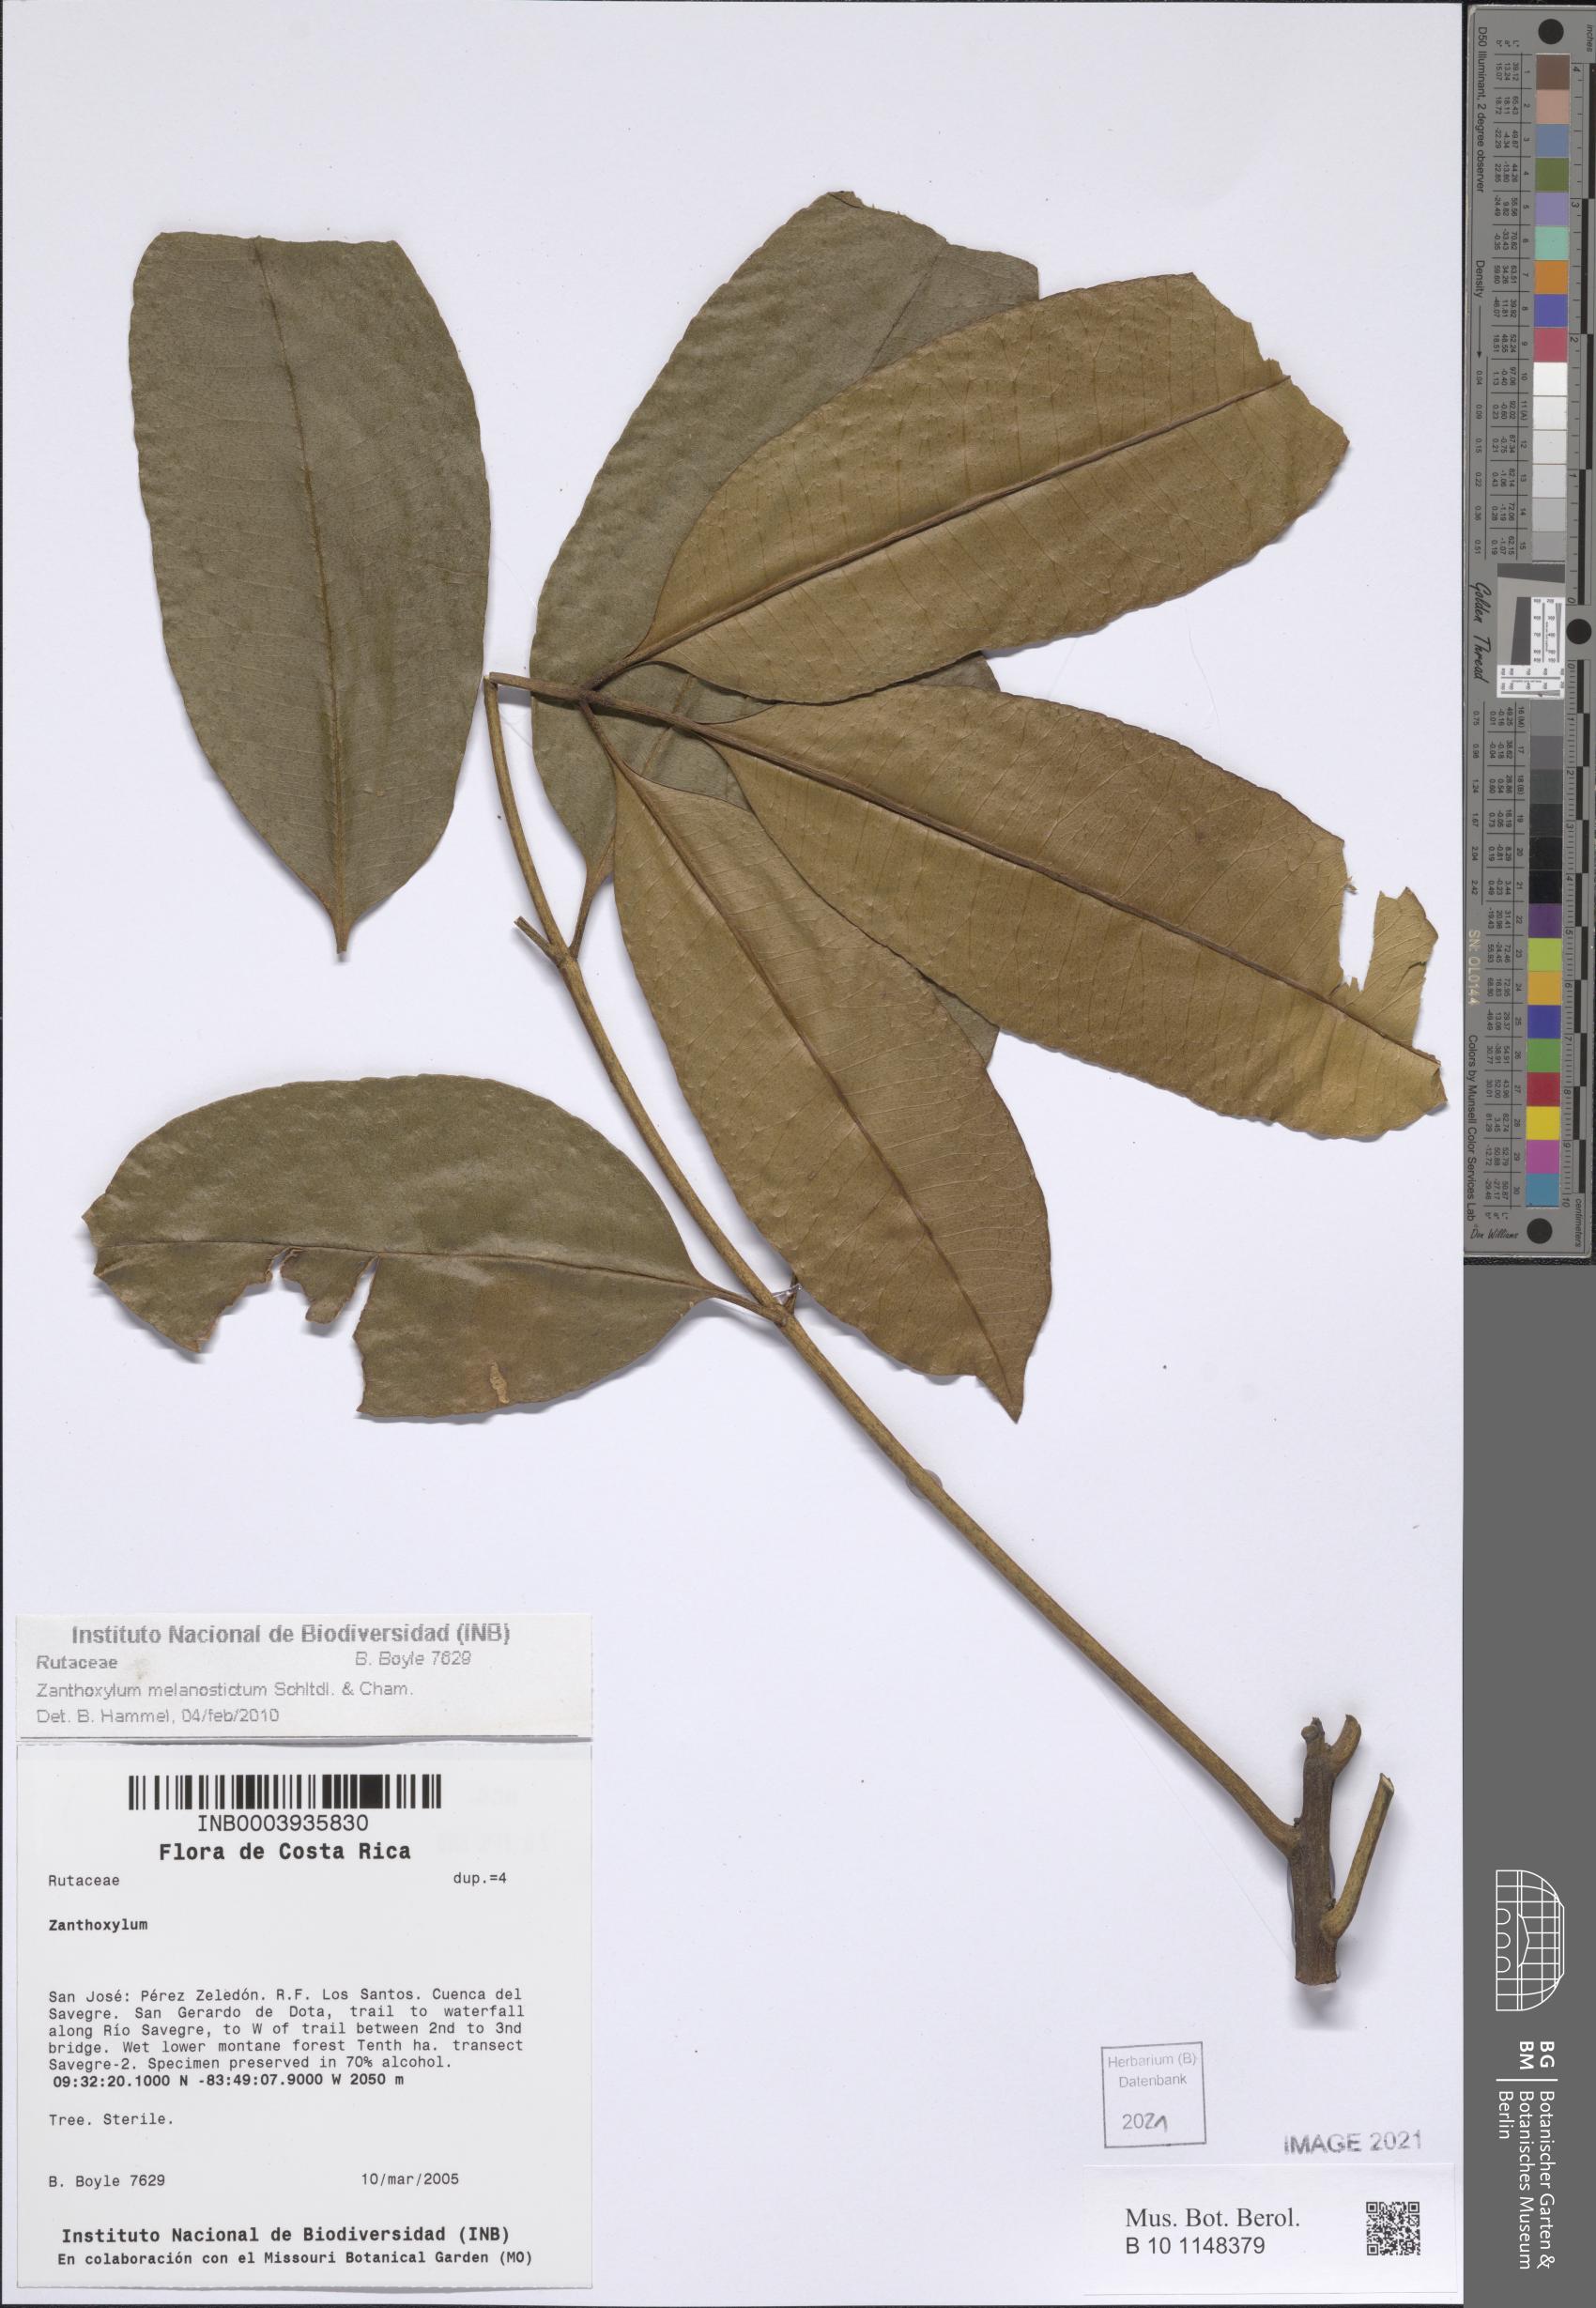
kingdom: Plantae
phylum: Tracheophyta
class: Magnoliopsida
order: Sapindales
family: Rutaceae
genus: Zanthoxylum
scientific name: Zanthoxylum melanostictum
